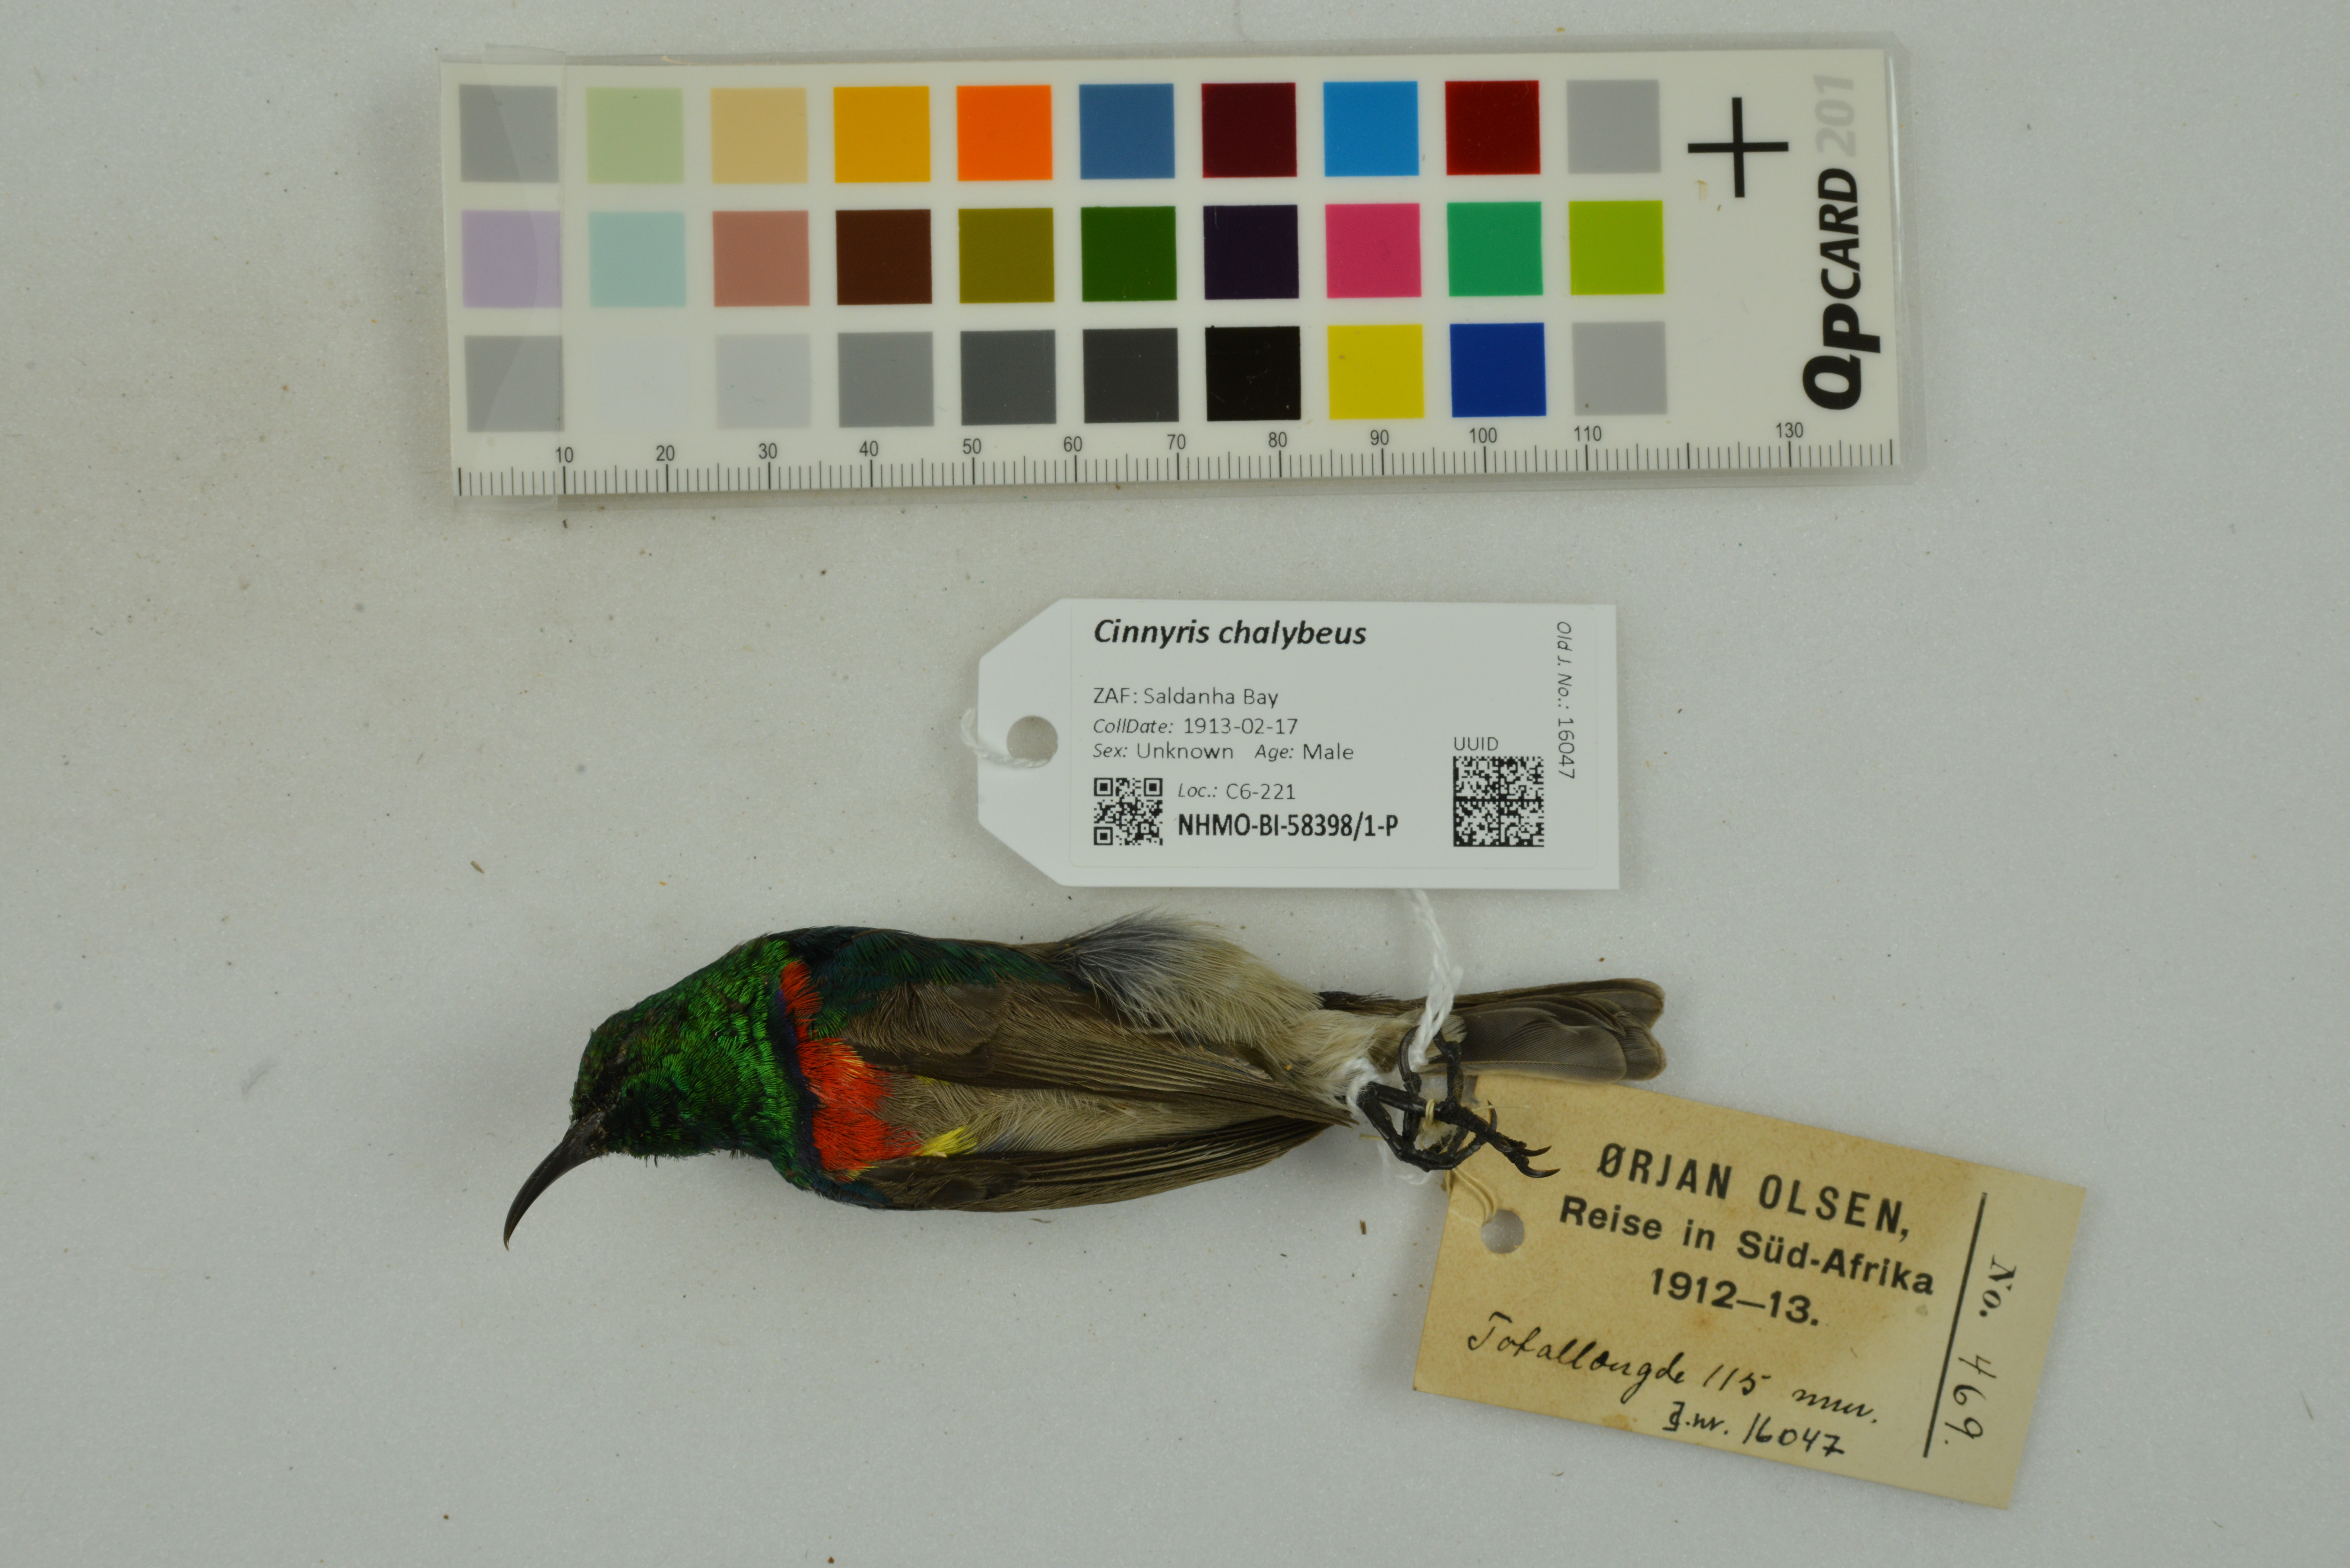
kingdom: Animalia
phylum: Chordata
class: Aves
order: Passeriformes
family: Nectariniidae
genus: Cinnyris
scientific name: Cinnyris chalybeus
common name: Southern double-collared sunbird
